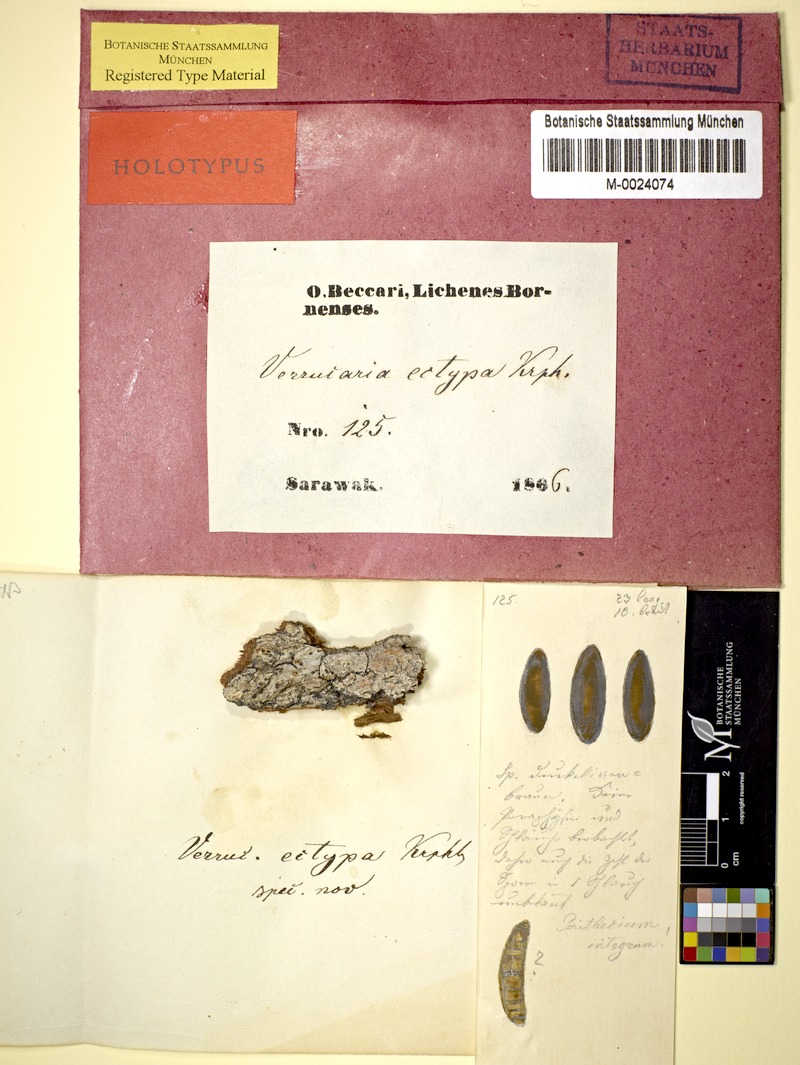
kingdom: Fungi
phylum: Ascomycota
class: Eurotiomycetes
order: Pyrenulales
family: Pyrenulaceae
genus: Pyrenula
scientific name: Pyrenula
